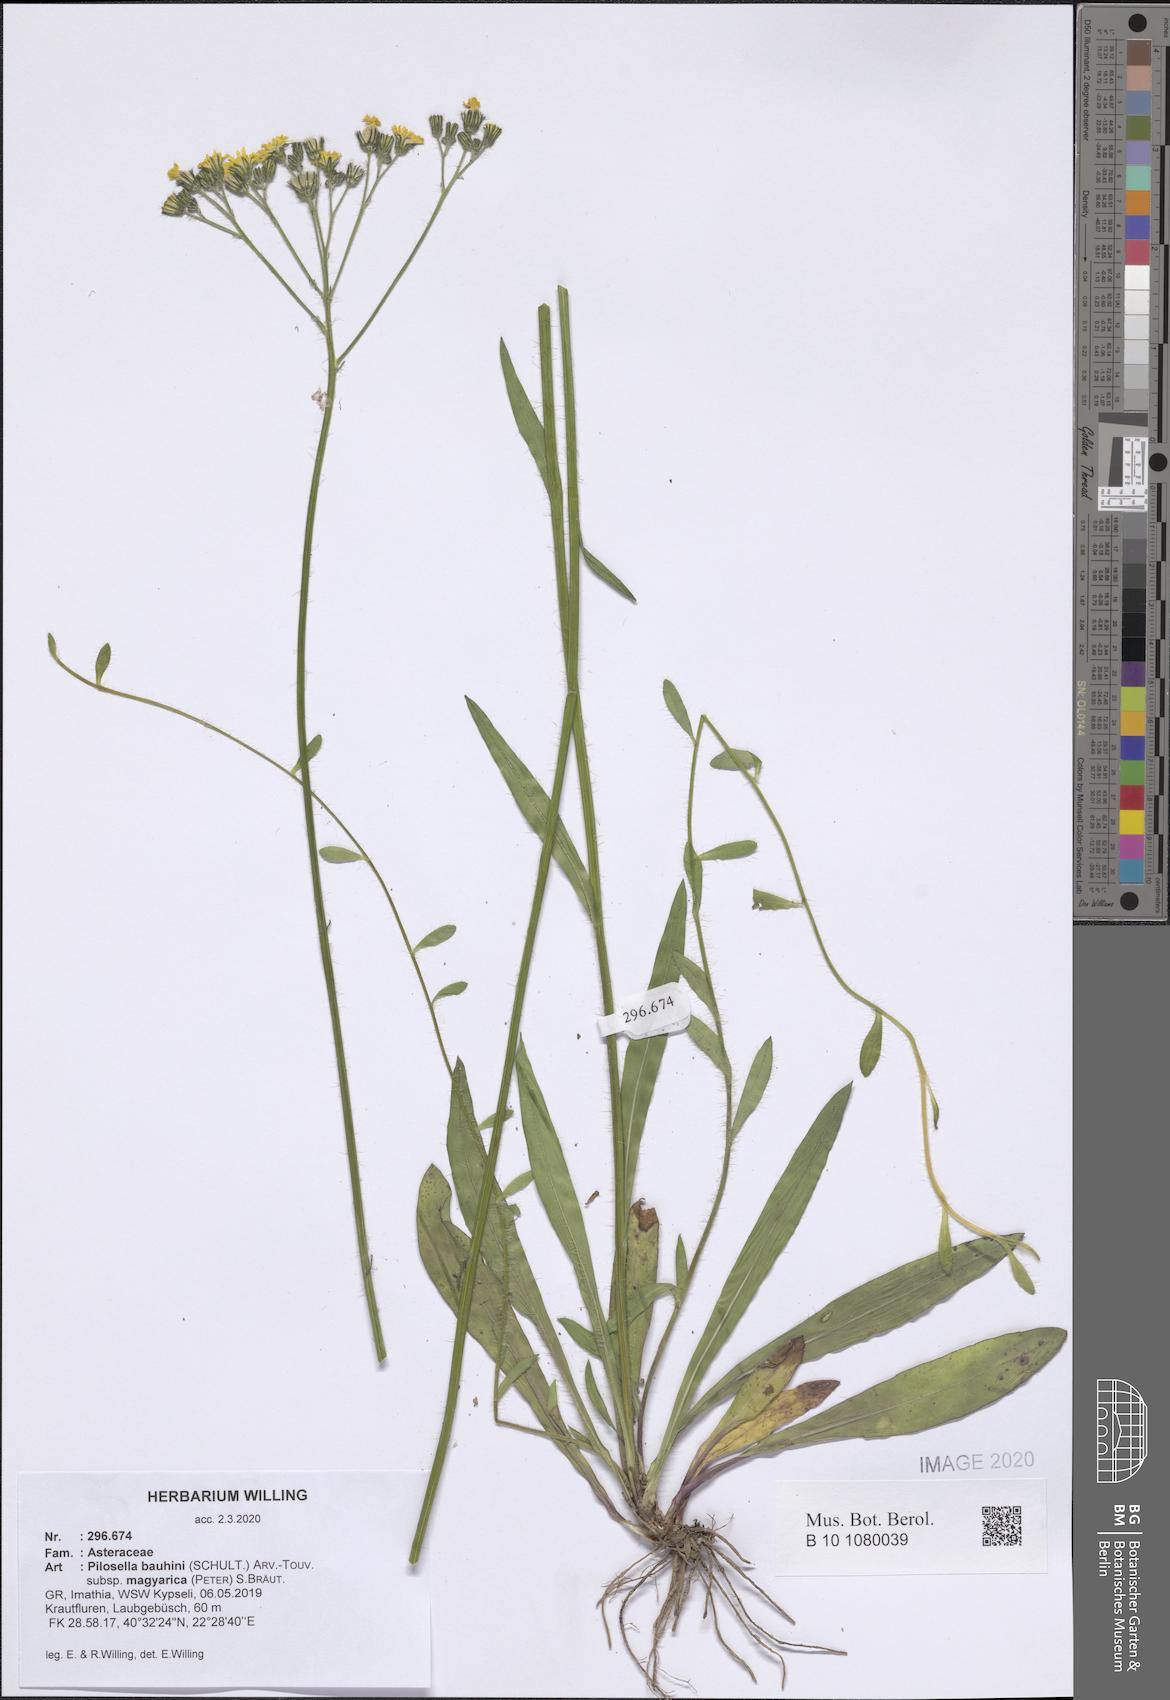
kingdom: Plantae
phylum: Tracheophyta
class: Magnoliopsida
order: Asterales
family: Asteraceae
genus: Pilosella
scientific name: Pilosella bauhini
